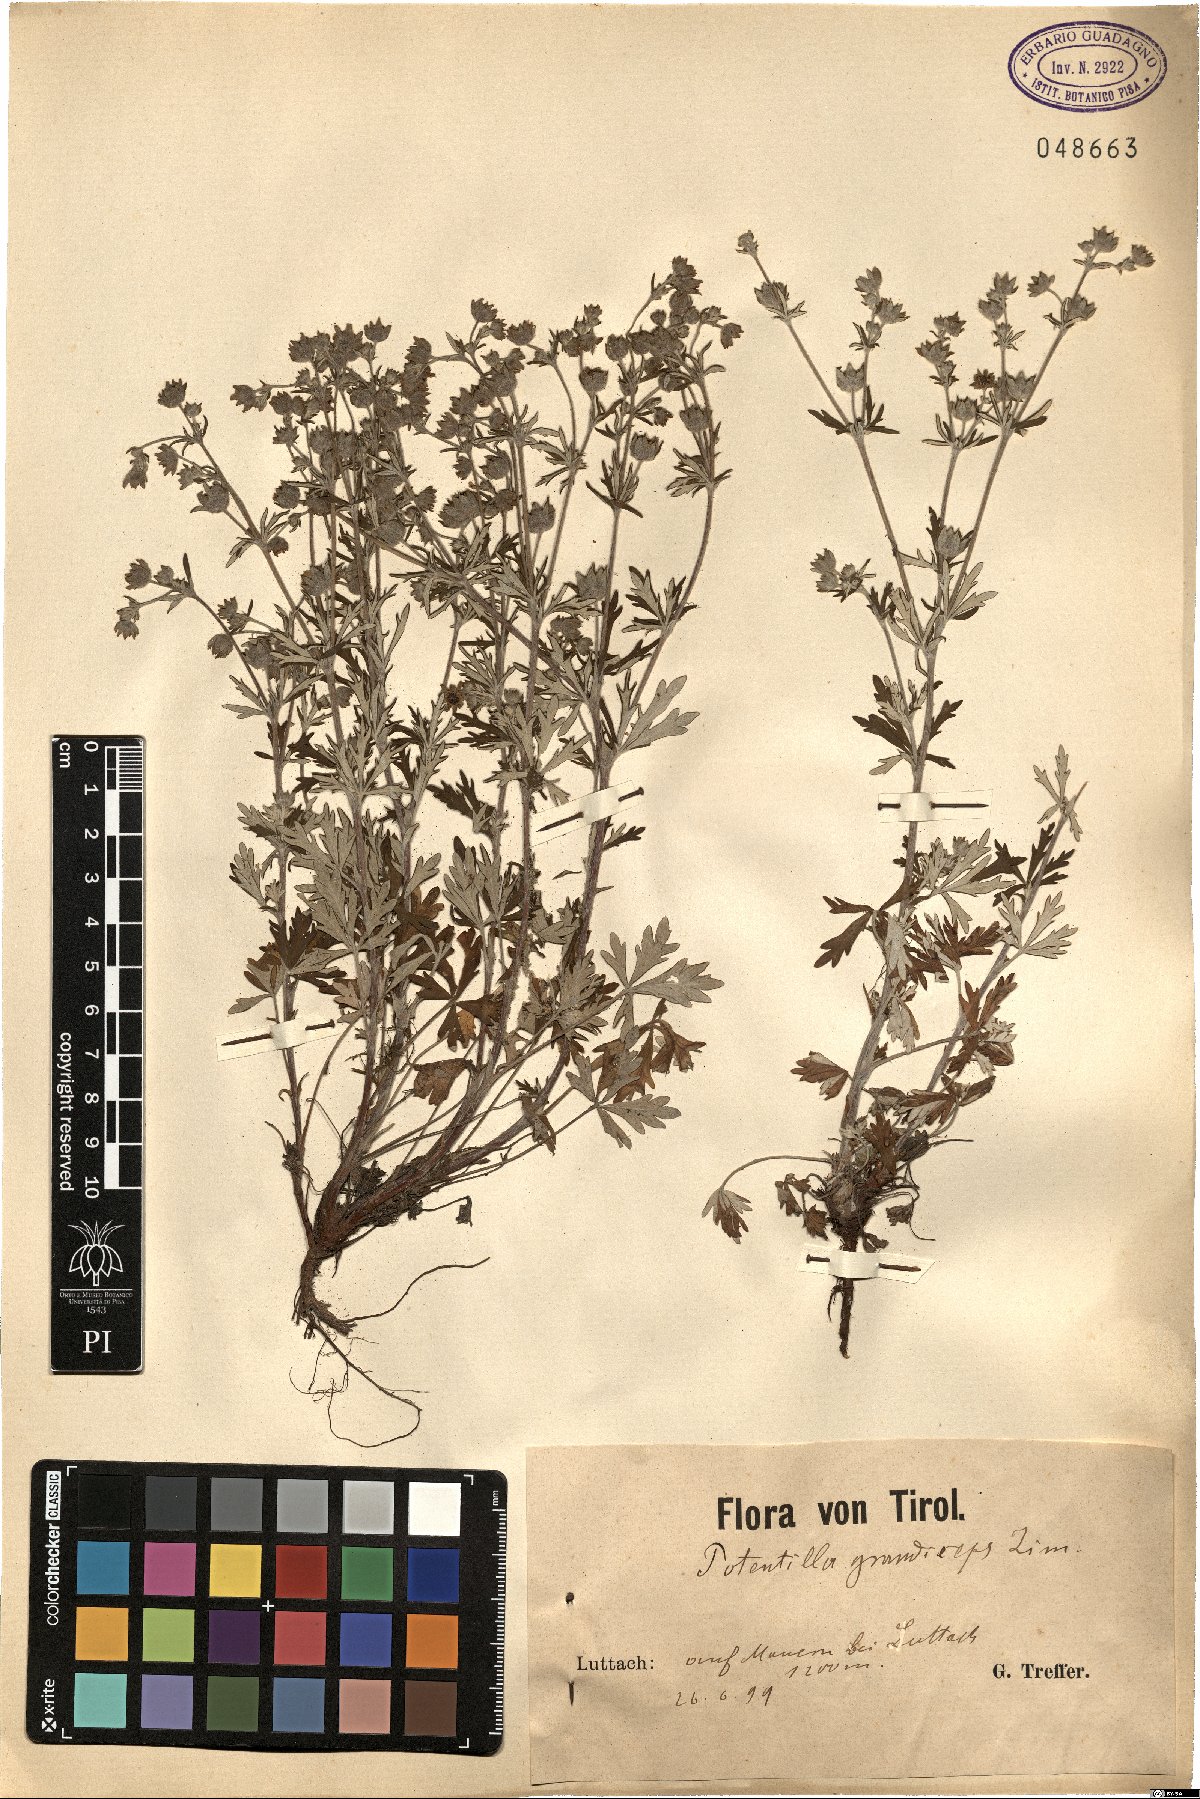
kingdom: Plantae
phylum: Tracheophyta
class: Magnoliopsida
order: Rosales
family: Rosaceae
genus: Potentilla
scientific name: Potentilla argentea
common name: Hoary cinquefoil
